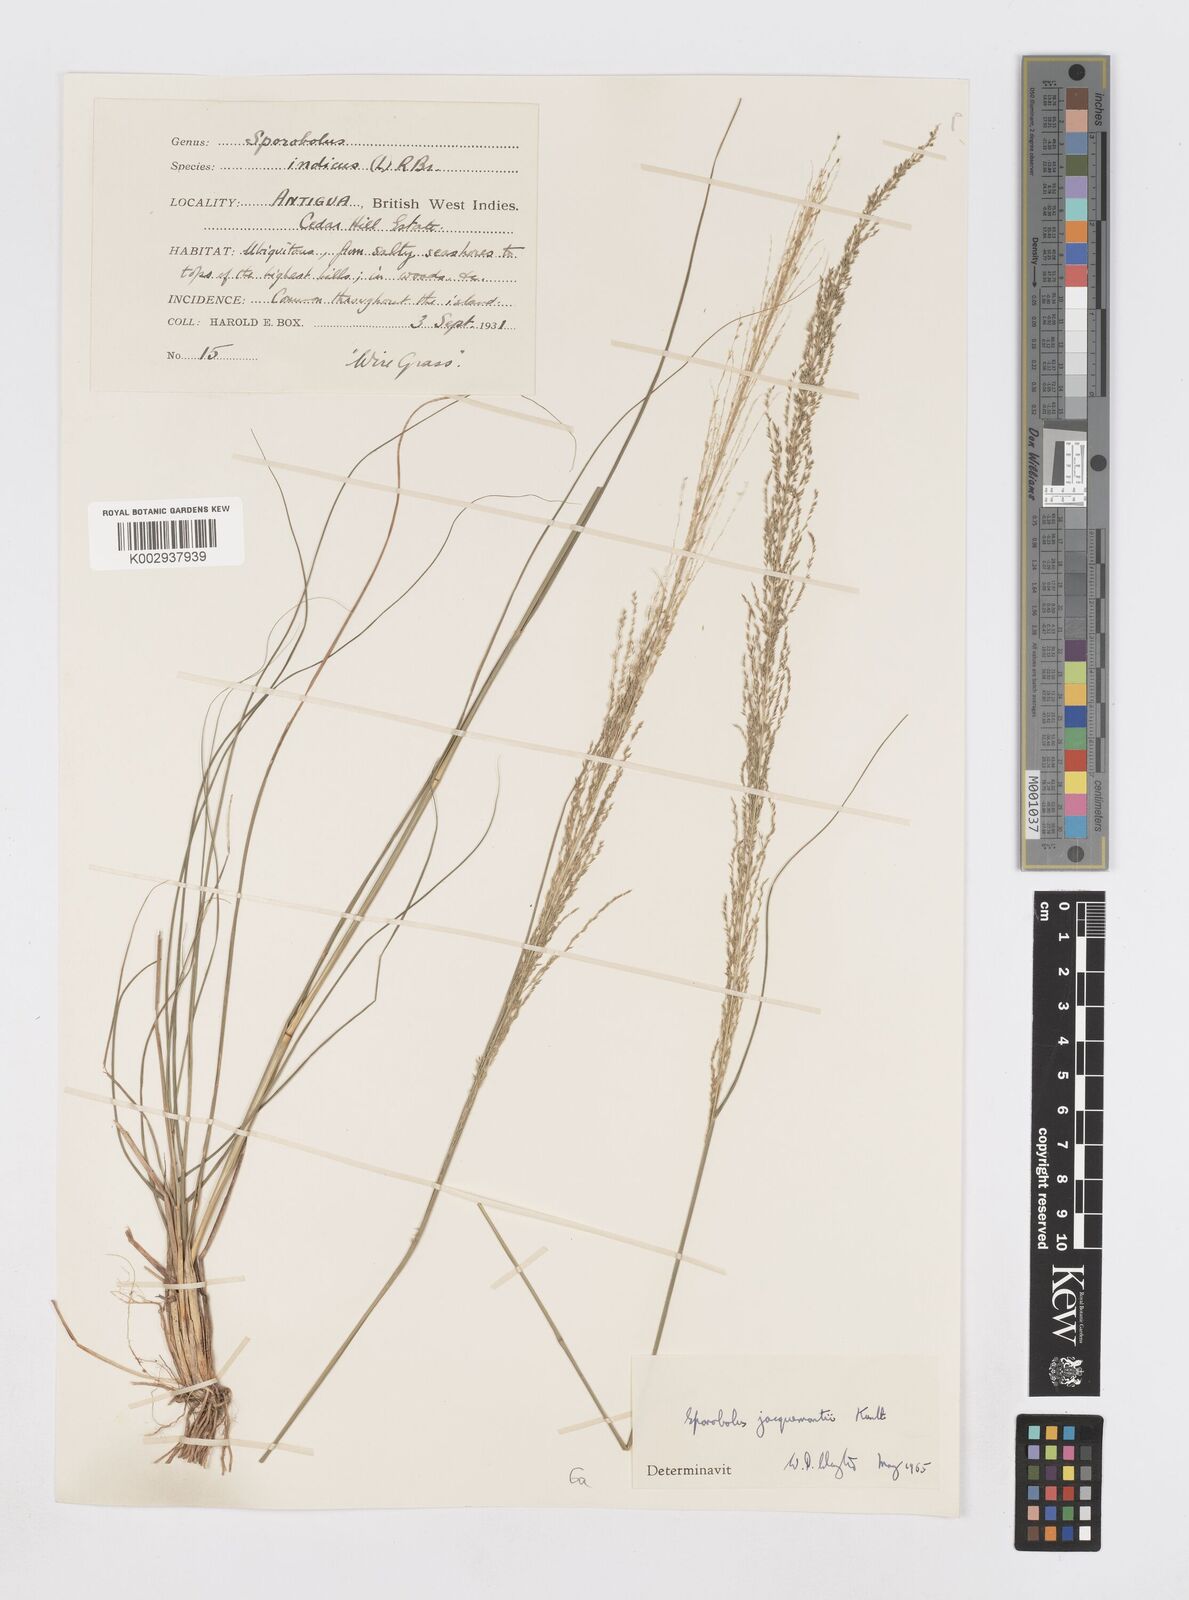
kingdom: Plantae
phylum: Tracheophyta
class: Liliopsida
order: Poales
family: Poaceae
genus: Sporobolus
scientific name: Sporobolus pyramidalis
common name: West indian dropseed
